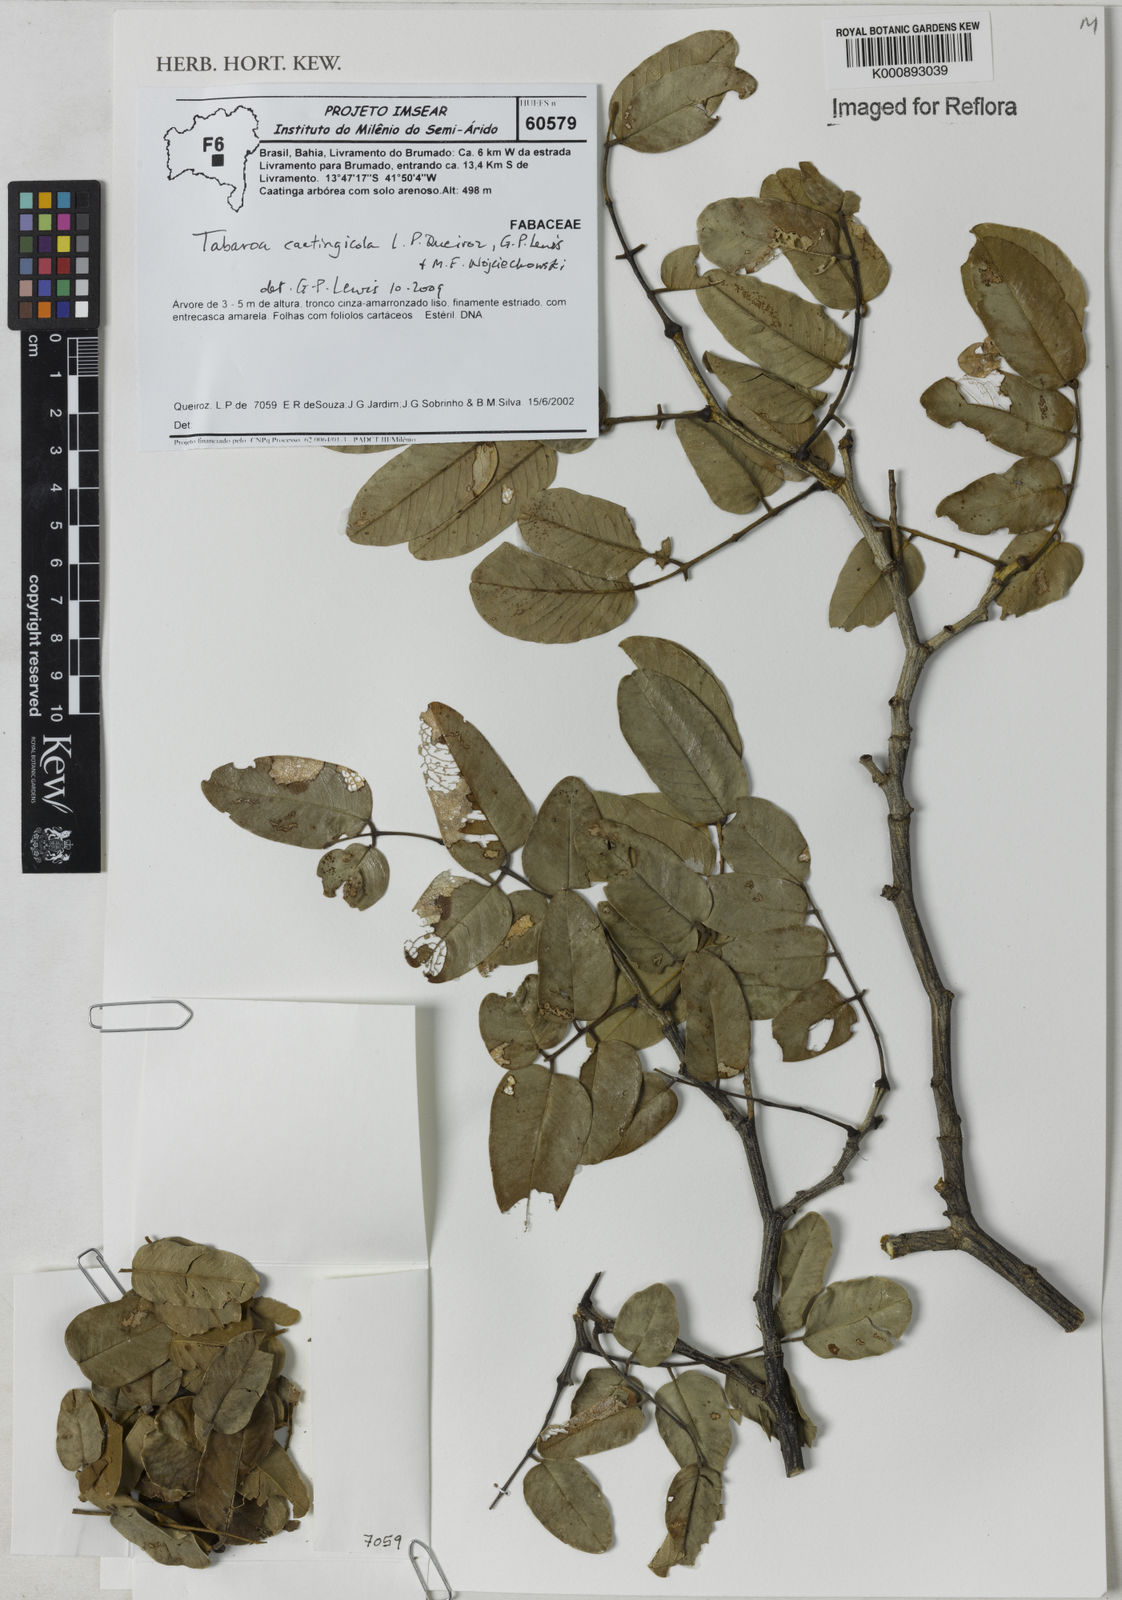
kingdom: Plantae
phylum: Tracheophyta
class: Magnoliopsida
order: Fabales
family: Fabaceae
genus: Tabaroa
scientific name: Tabaroa caatingicola
